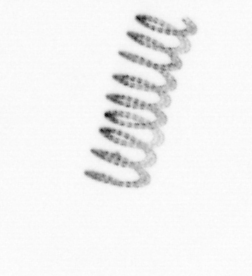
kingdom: Chromista
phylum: Ochrophyta
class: Bacillariophyceae
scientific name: Bacillariophyceae
